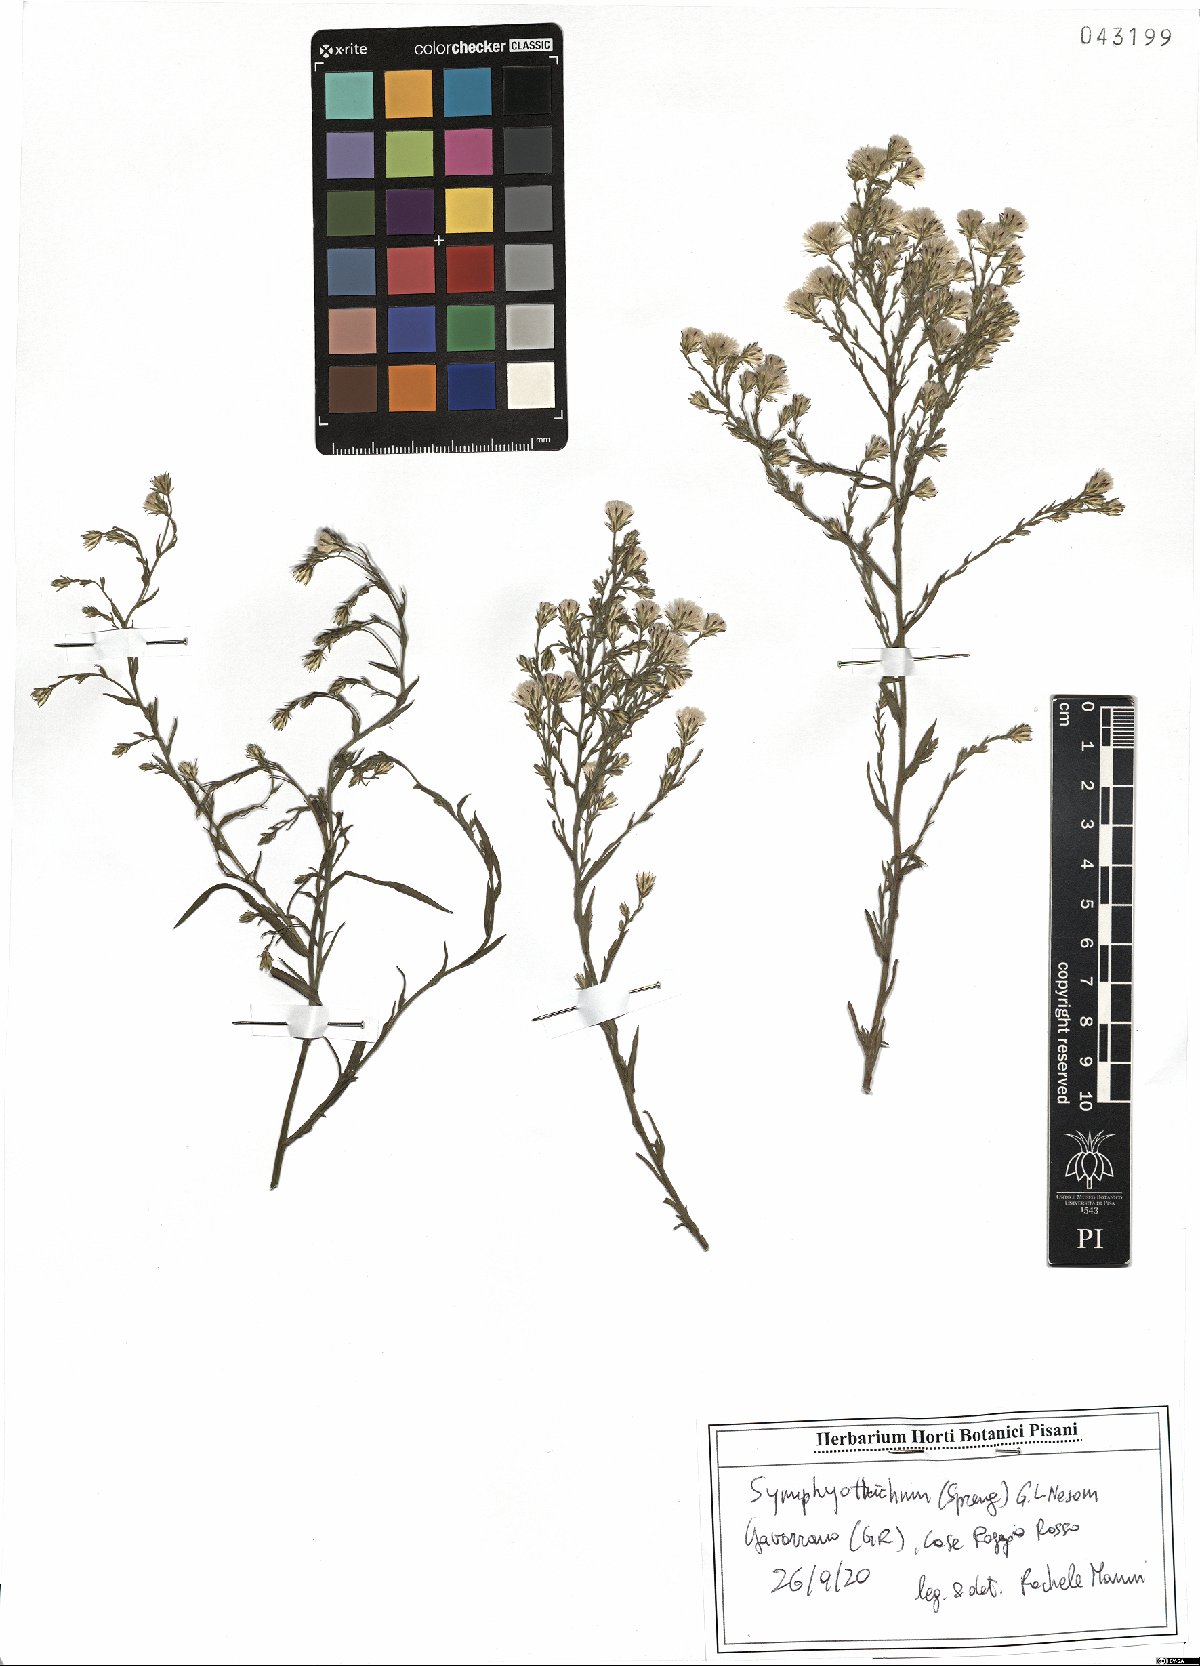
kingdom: Plantae
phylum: Tracheophyta
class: Magnoliopsida
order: Asterales
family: Asteraceae
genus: Symphyotrichum
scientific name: Symphyotrichum squamatum
